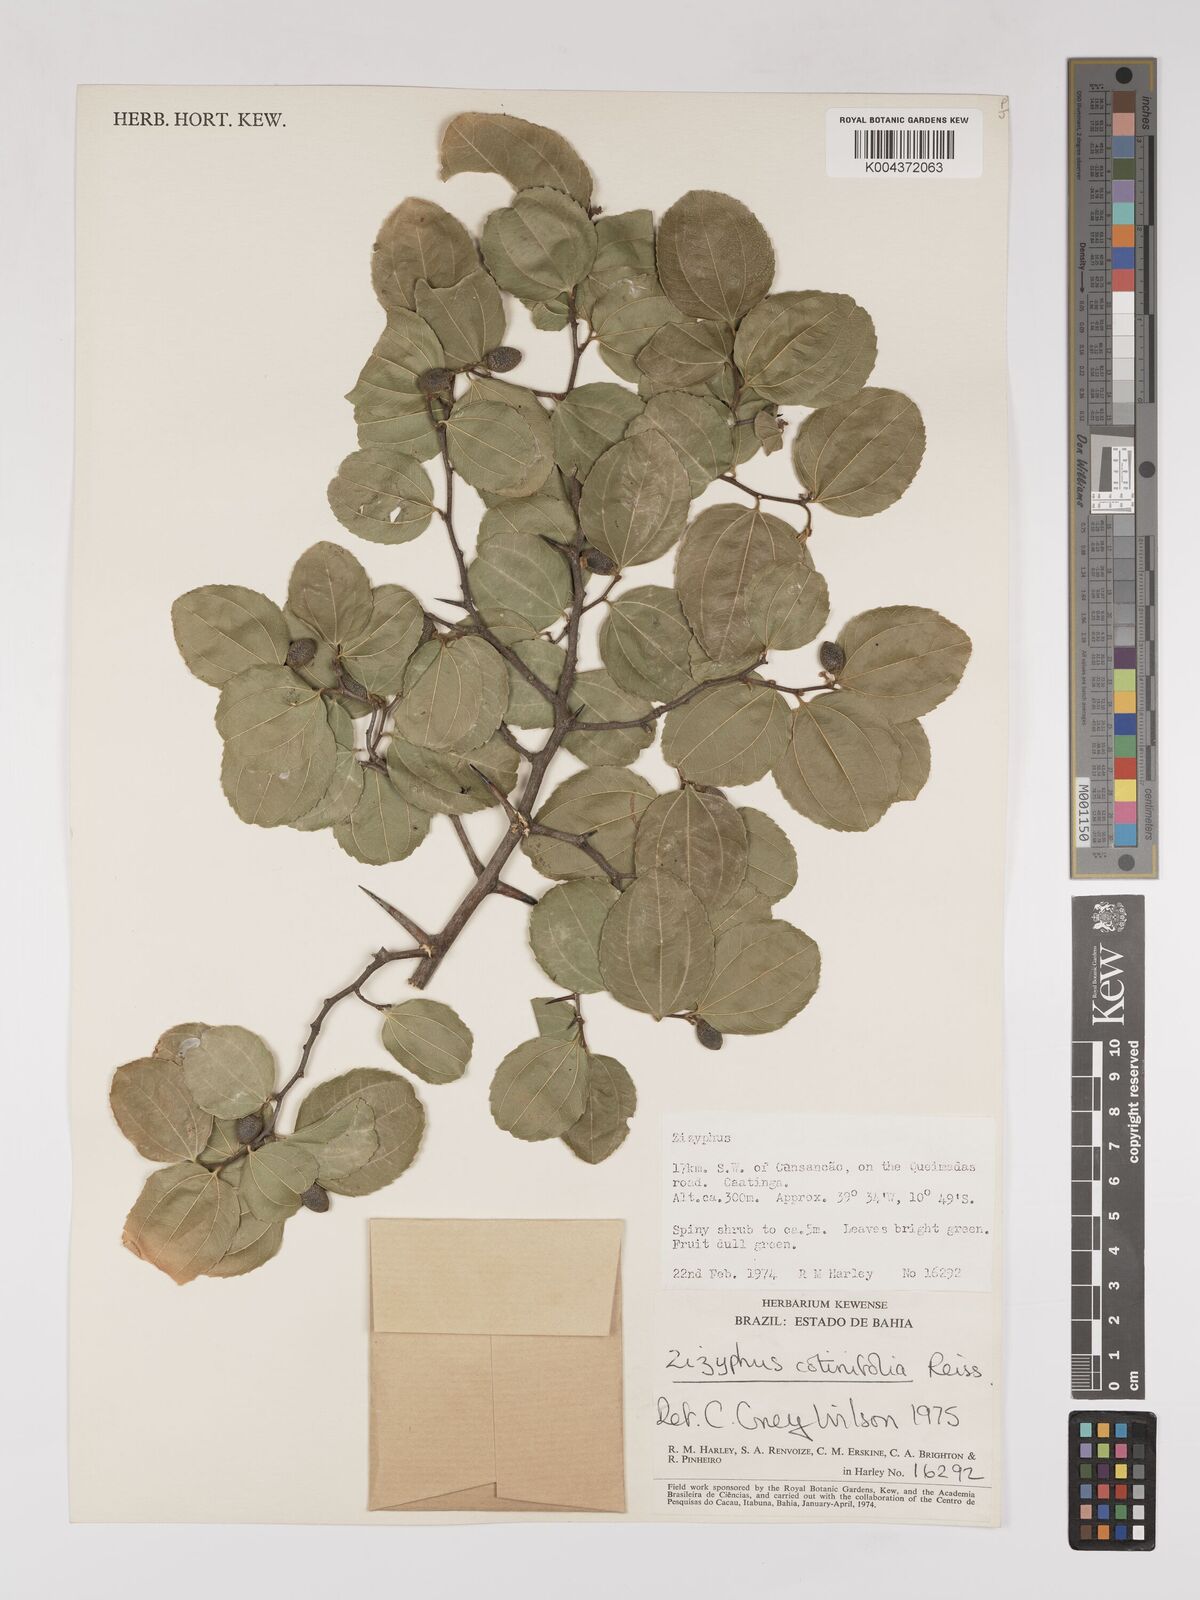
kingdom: Plantae
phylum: Tracheophyta
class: Magnoliopsida
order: Rosales
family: Rhamnaceae
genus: Sarcomphalus
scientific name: Sarcomphalus cotinifolius
